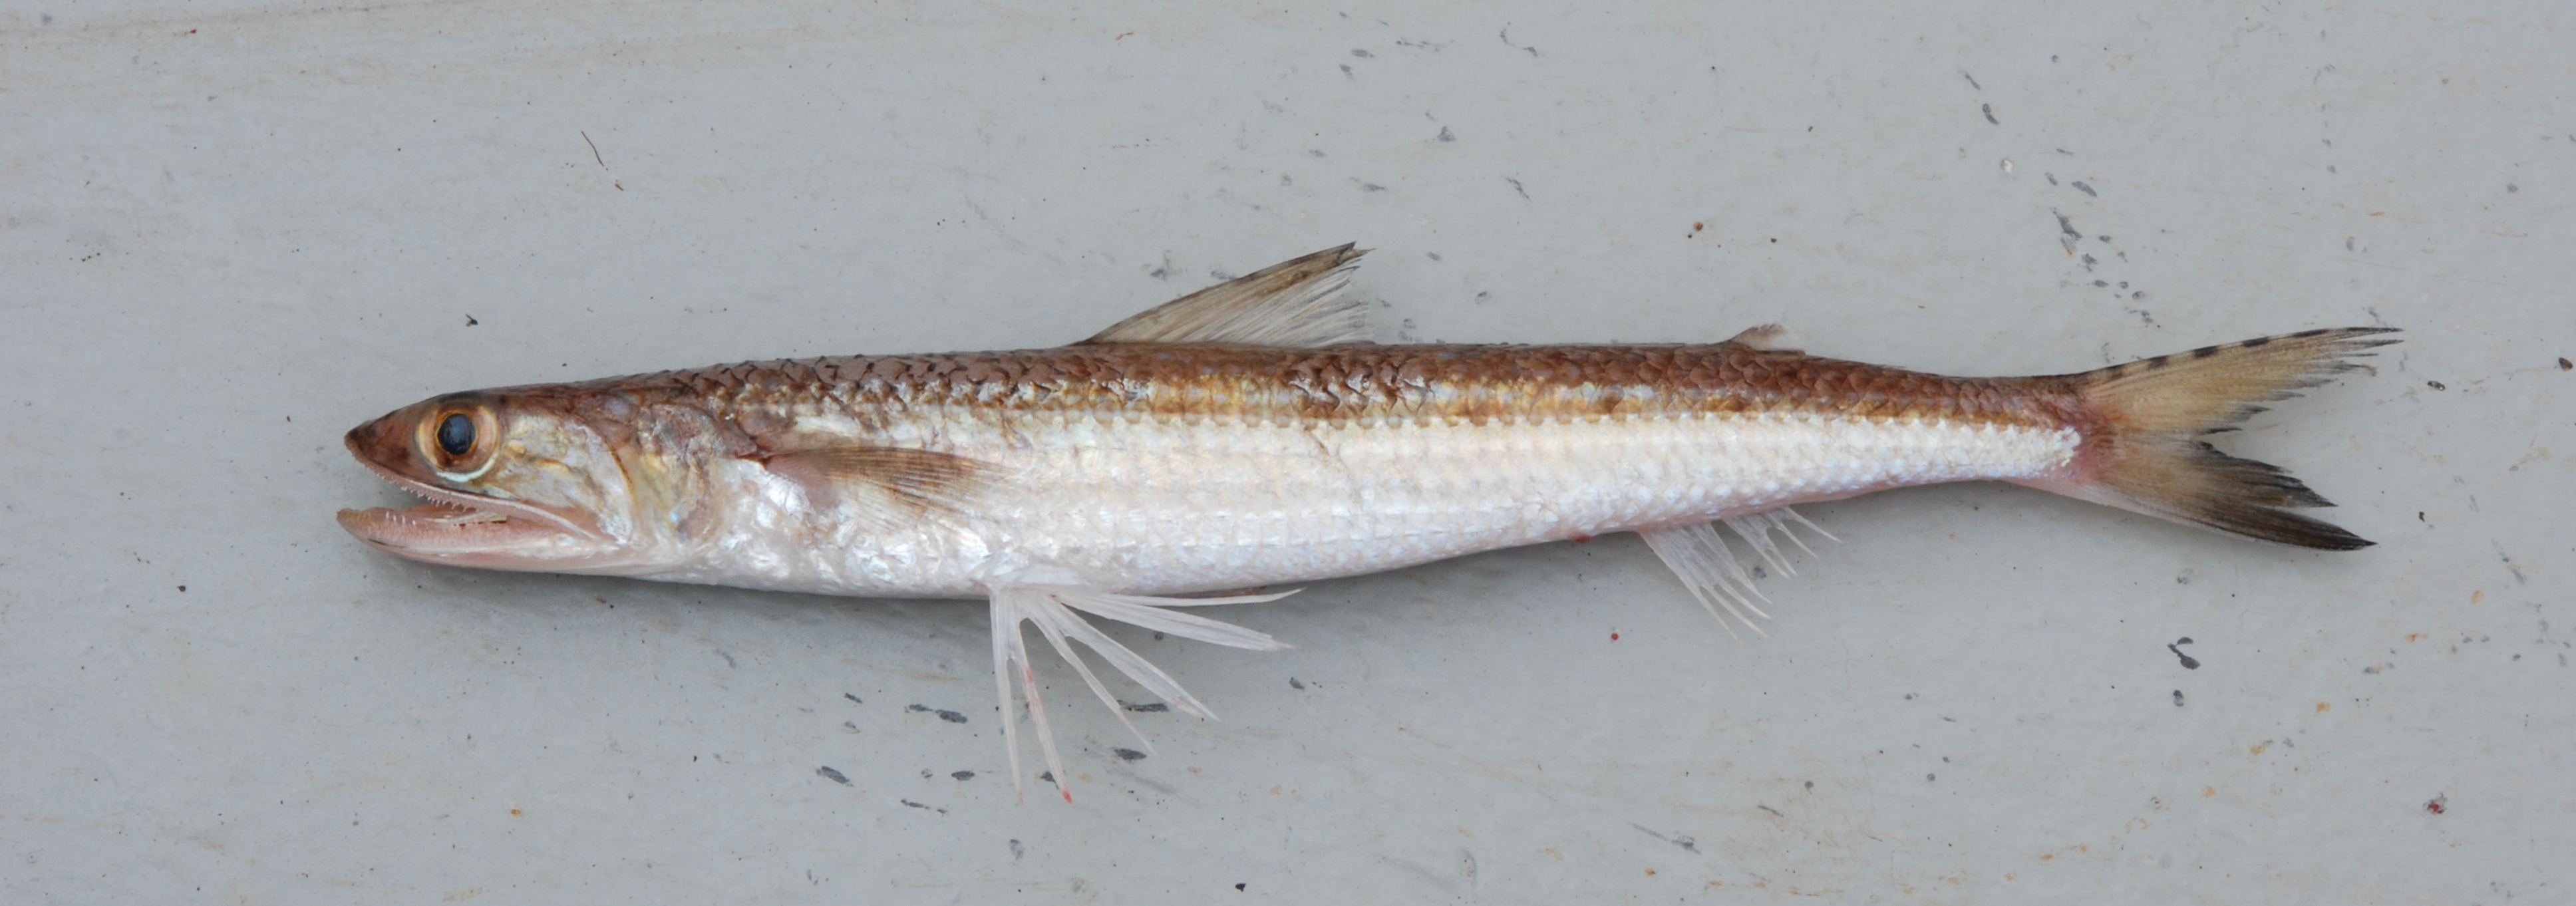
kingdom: Animalia
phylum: Chordata
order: Aulopiformes
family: Synodontidae
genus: Saurida
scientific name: Saurida
